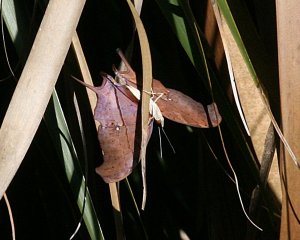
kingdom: Animalia
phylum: Arthropoda
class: Insecta
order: Lepidoptera
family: Nymphalidae
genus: Marpesia
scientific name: Marpesia petreus
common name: Ruddy Daggerwing
